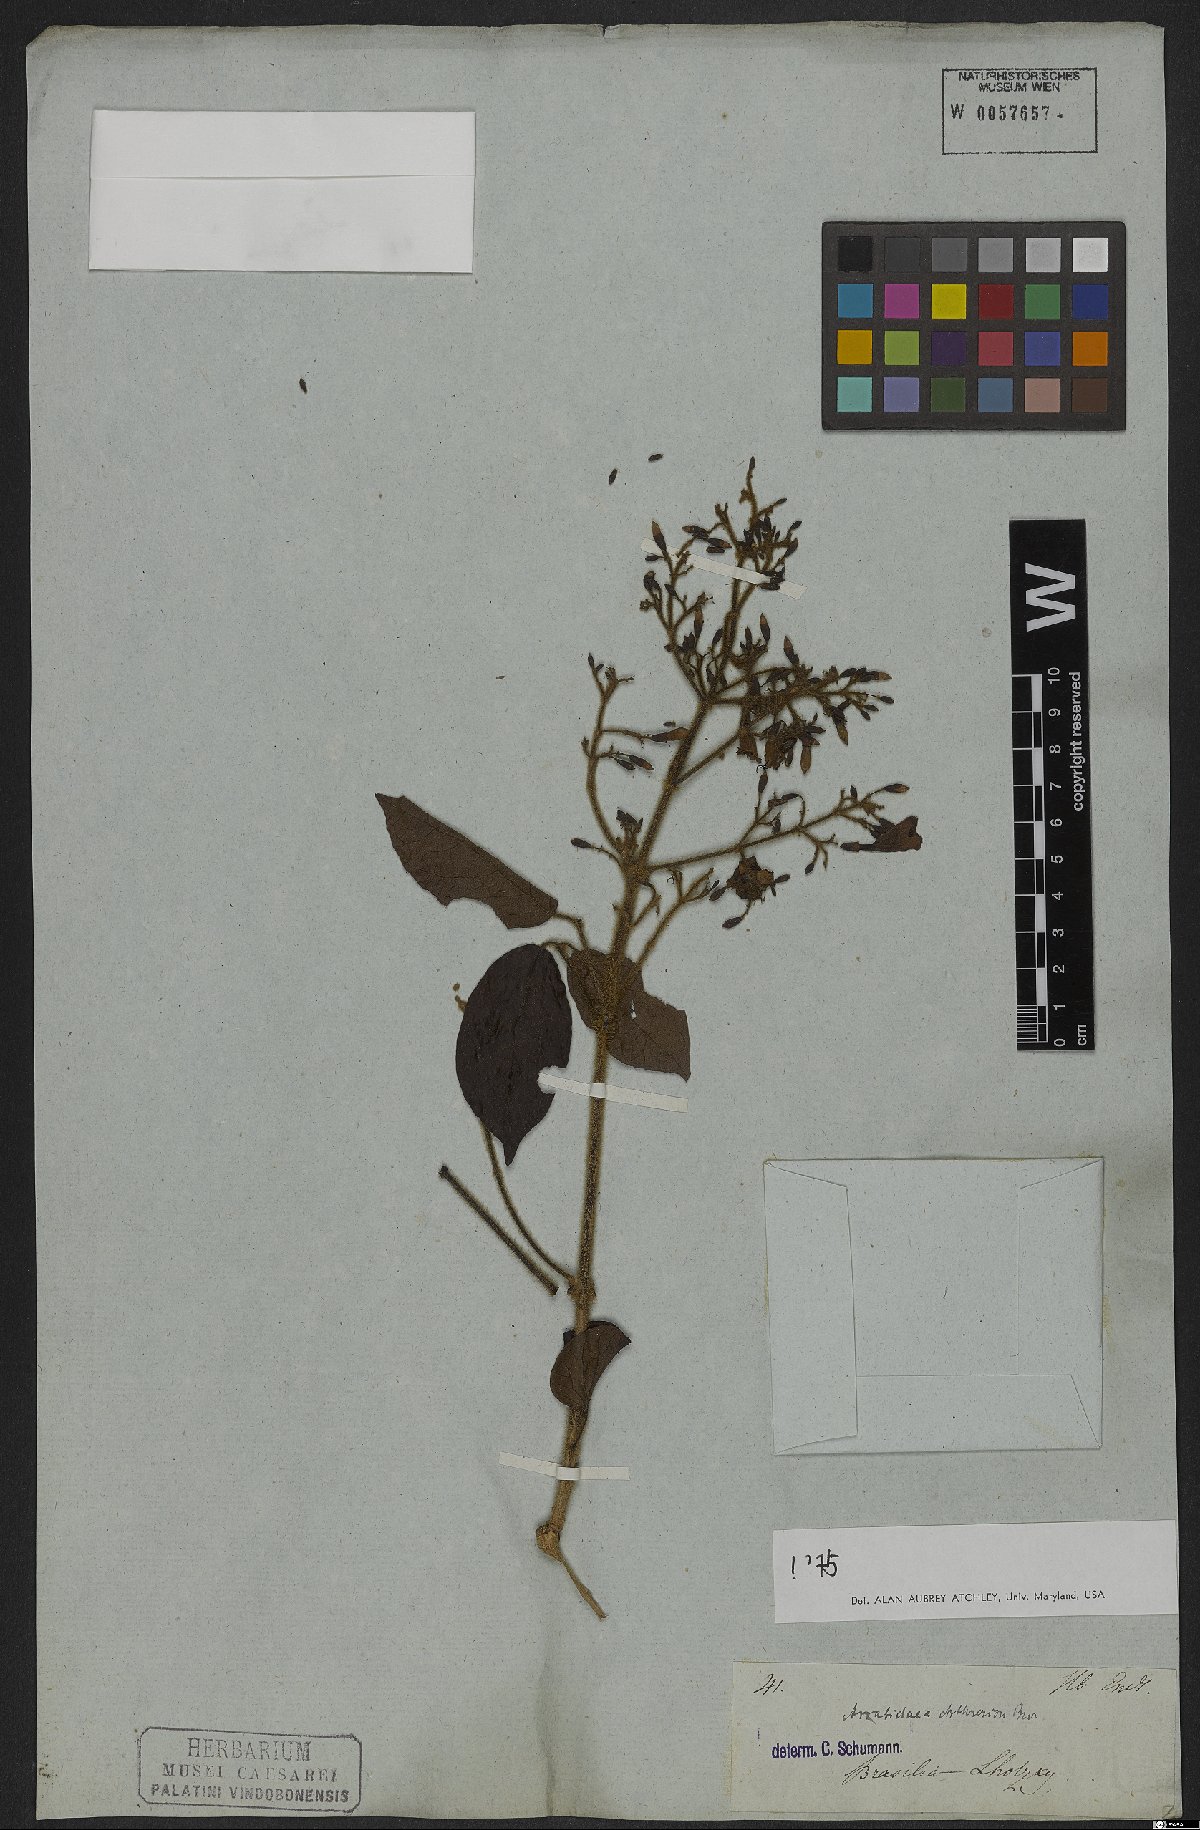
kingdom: Plantae
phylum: Tracheophyta
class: Magnoliopsida
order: Lamiales
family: Bignoniaceae
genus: Fridericia
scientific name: Fridericia arthrerion
